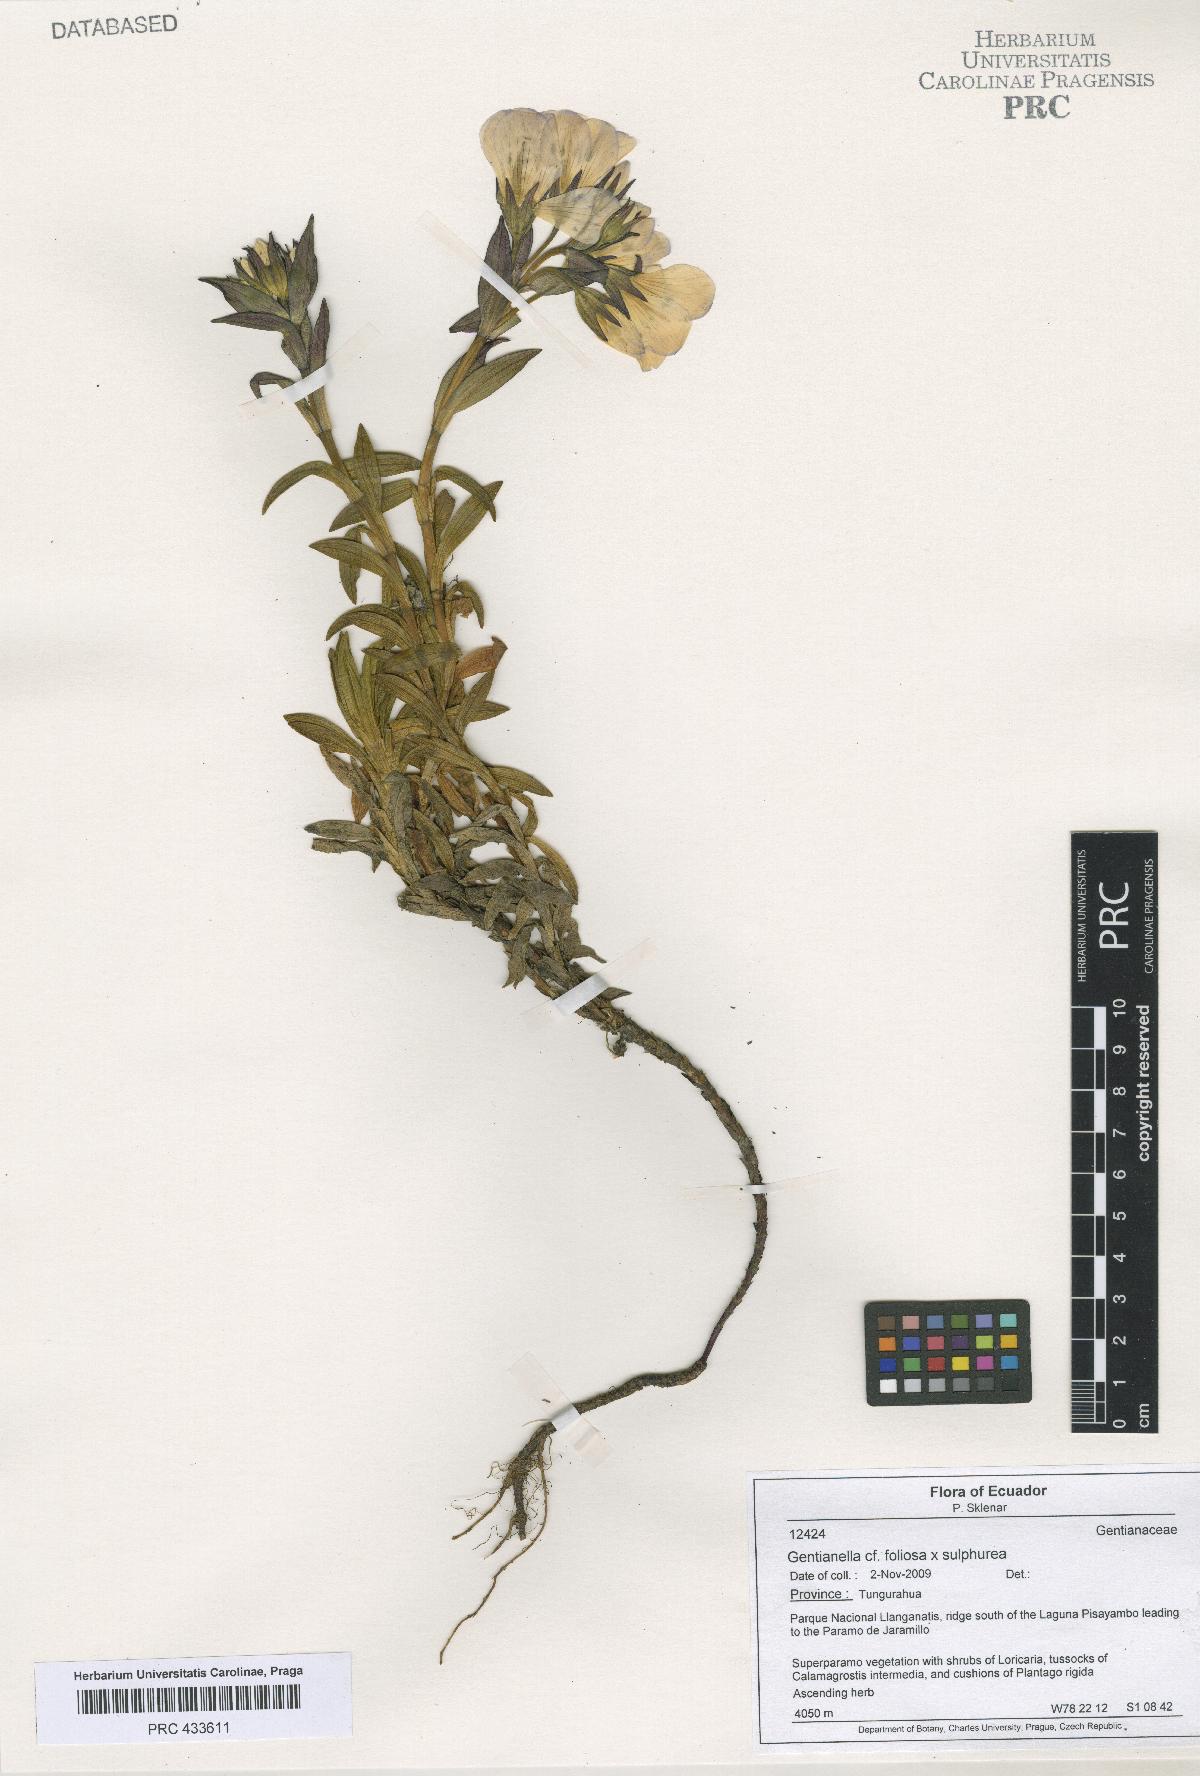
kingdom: Plantae
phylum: Tracheophyta
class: Magnoliopsida
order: Gentianales
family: Gentianaceae
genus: Gentianella
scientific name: Gentianella
